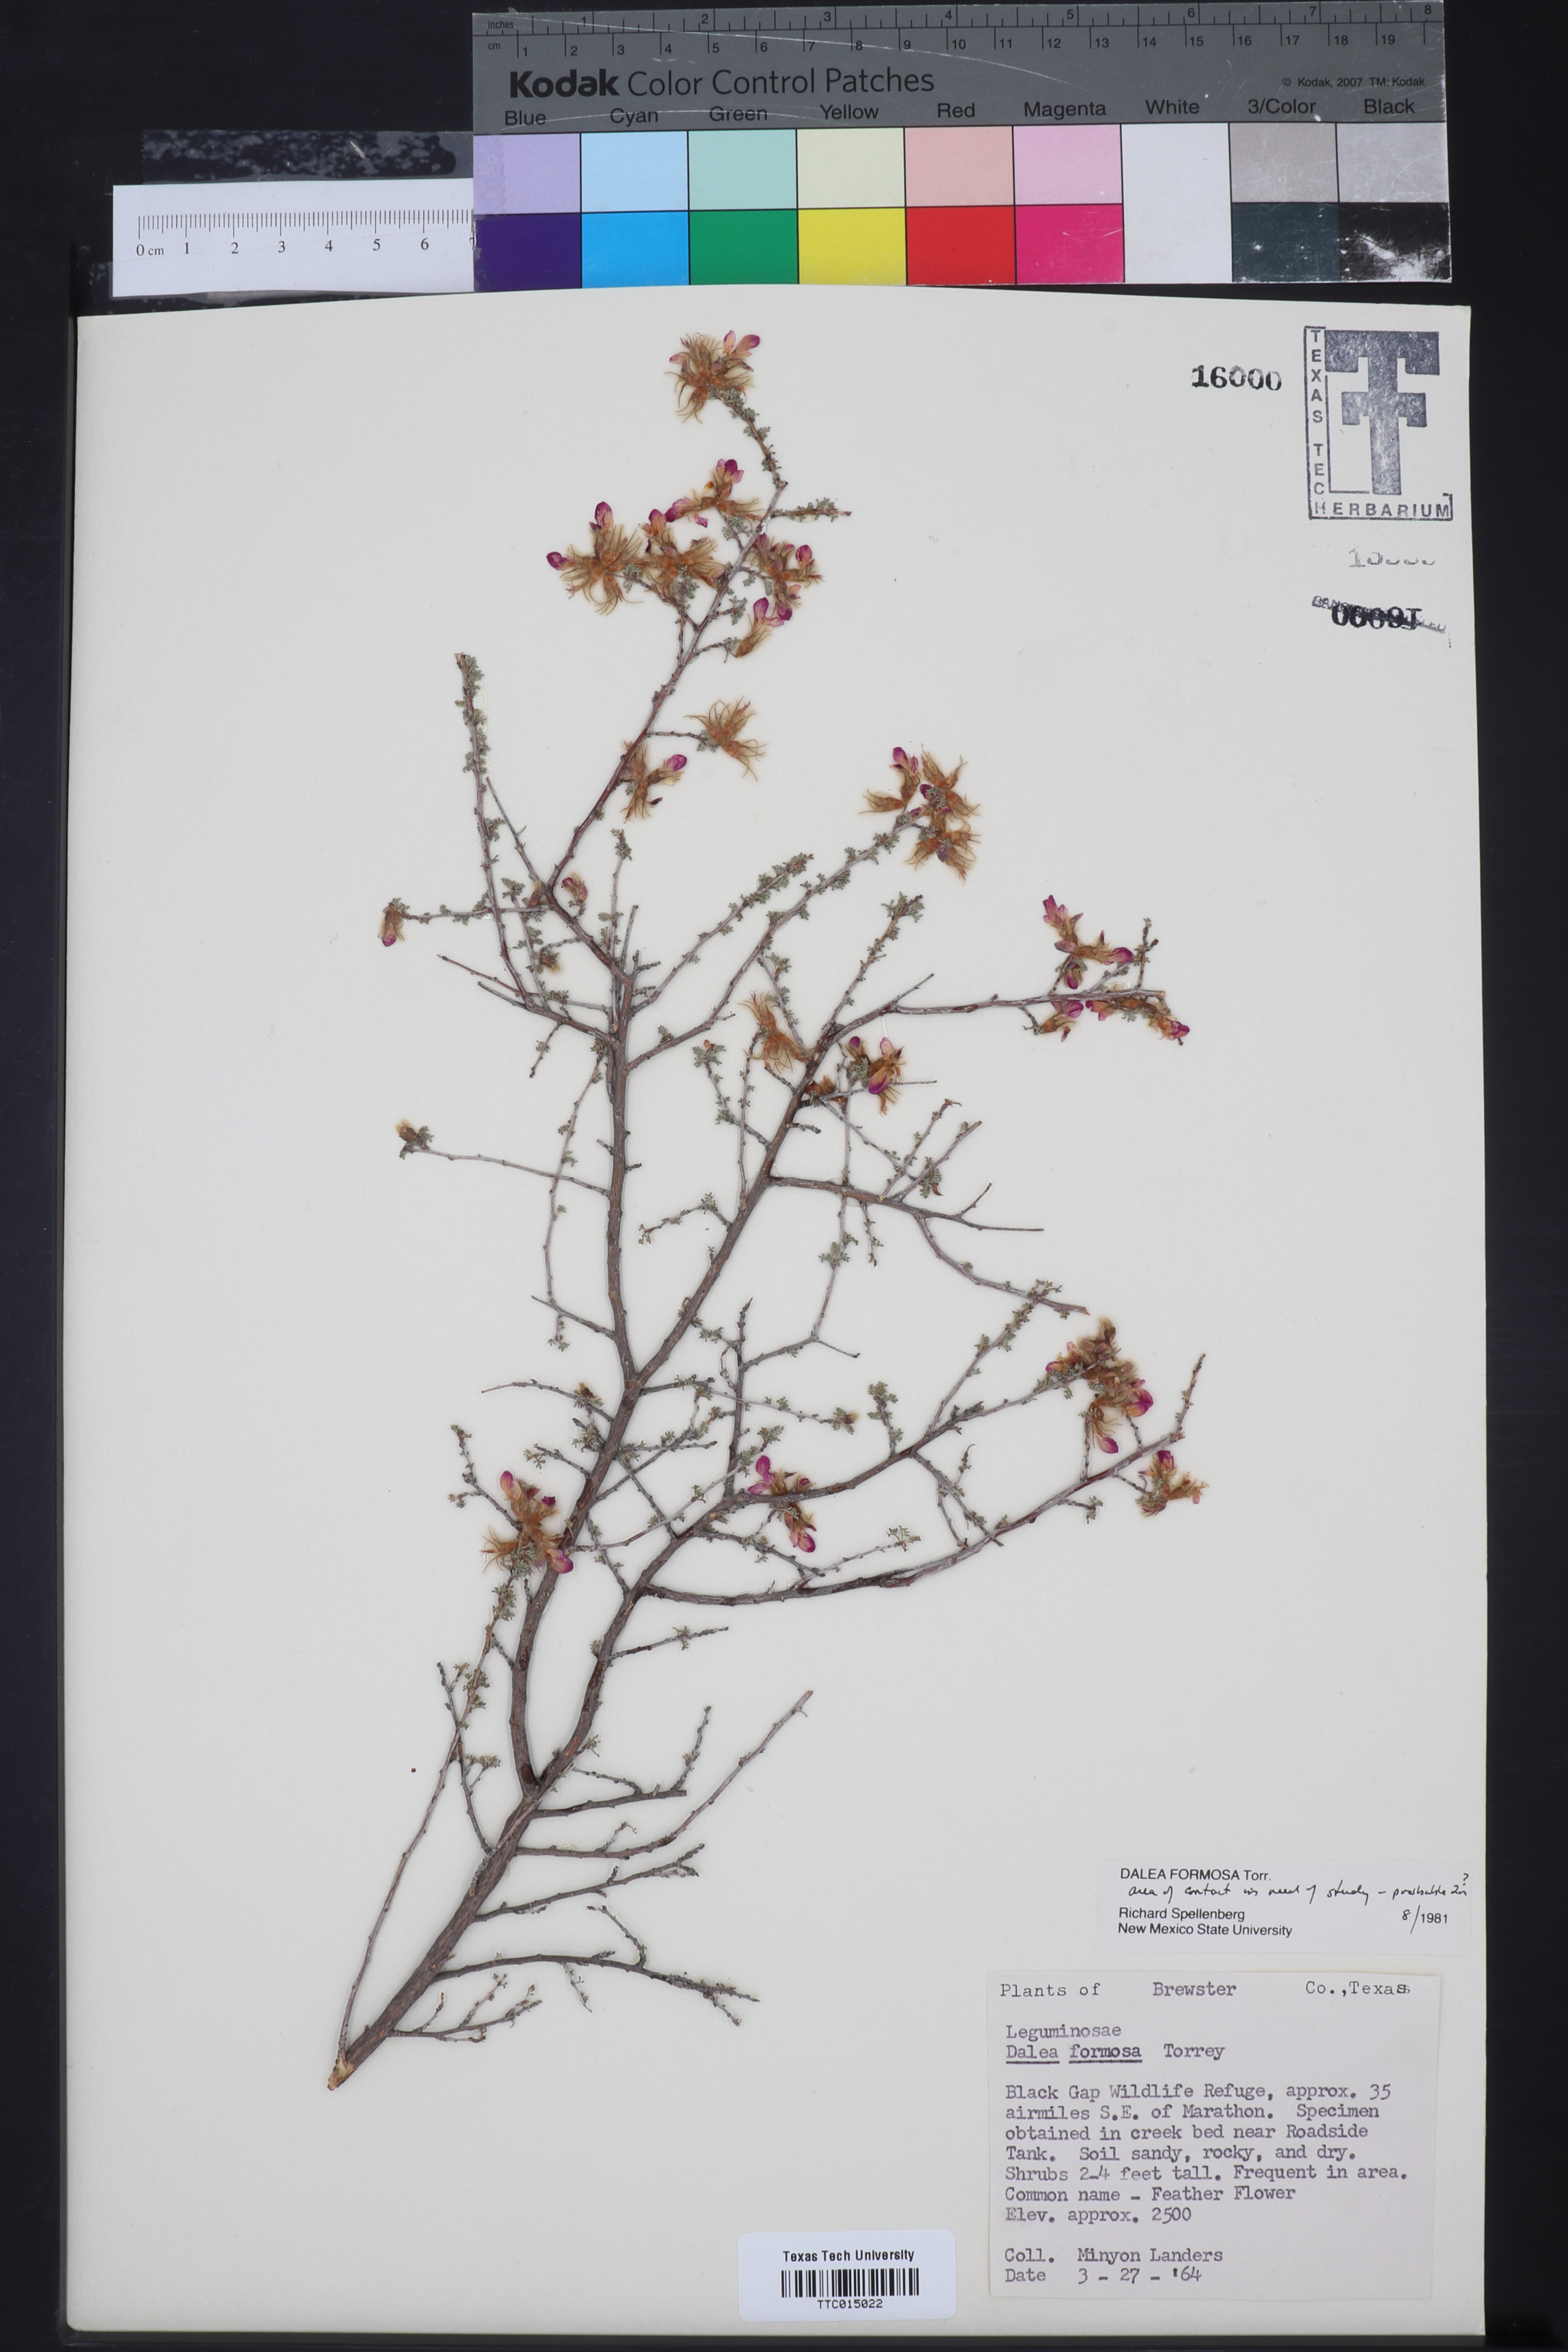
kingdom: Plantae
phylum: Tracheophyta
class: Magnoliopsida
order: Fabales
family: Fabaceae
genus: Dalea
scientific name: Dalea formosa
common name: Feather-plume dalea
